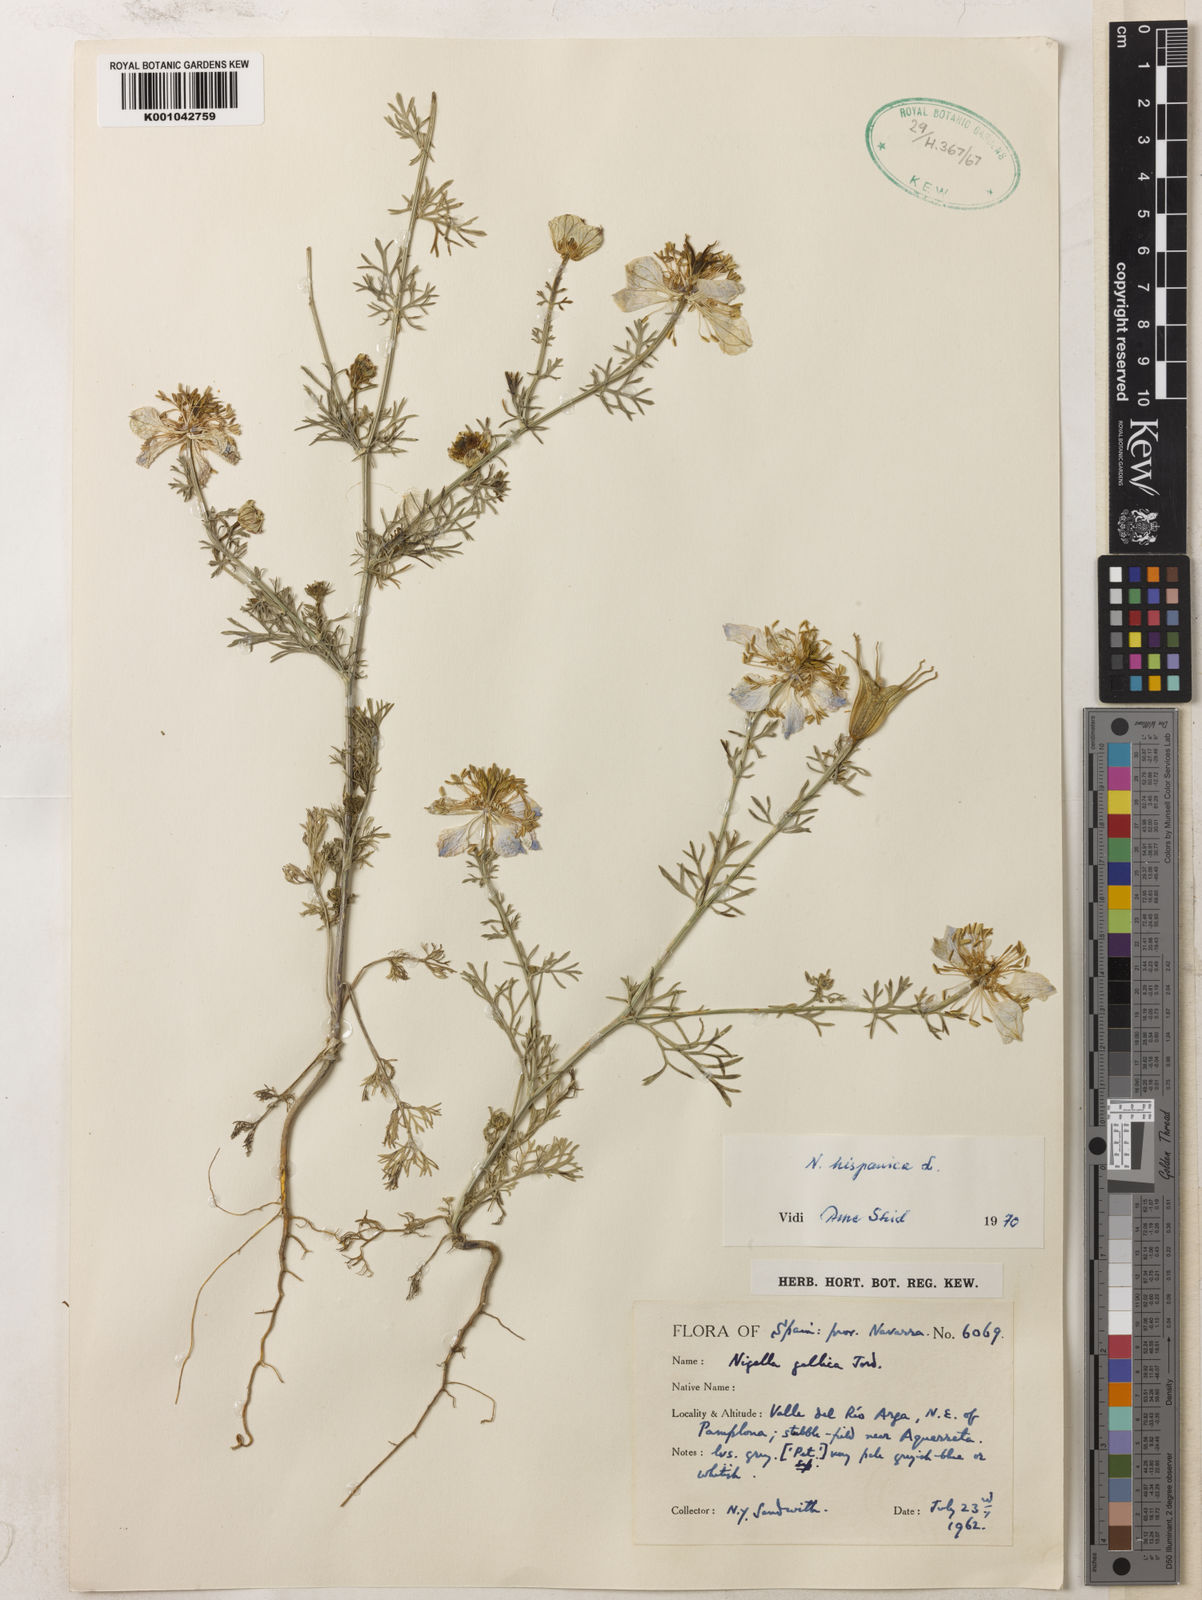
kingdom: Plantae
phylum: Tracheophyta
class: Magnoliopsida
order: Ranunculales
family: Ranunculaceae
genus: Nigella
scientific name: Nigella hispanica
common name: Fennel-flower
